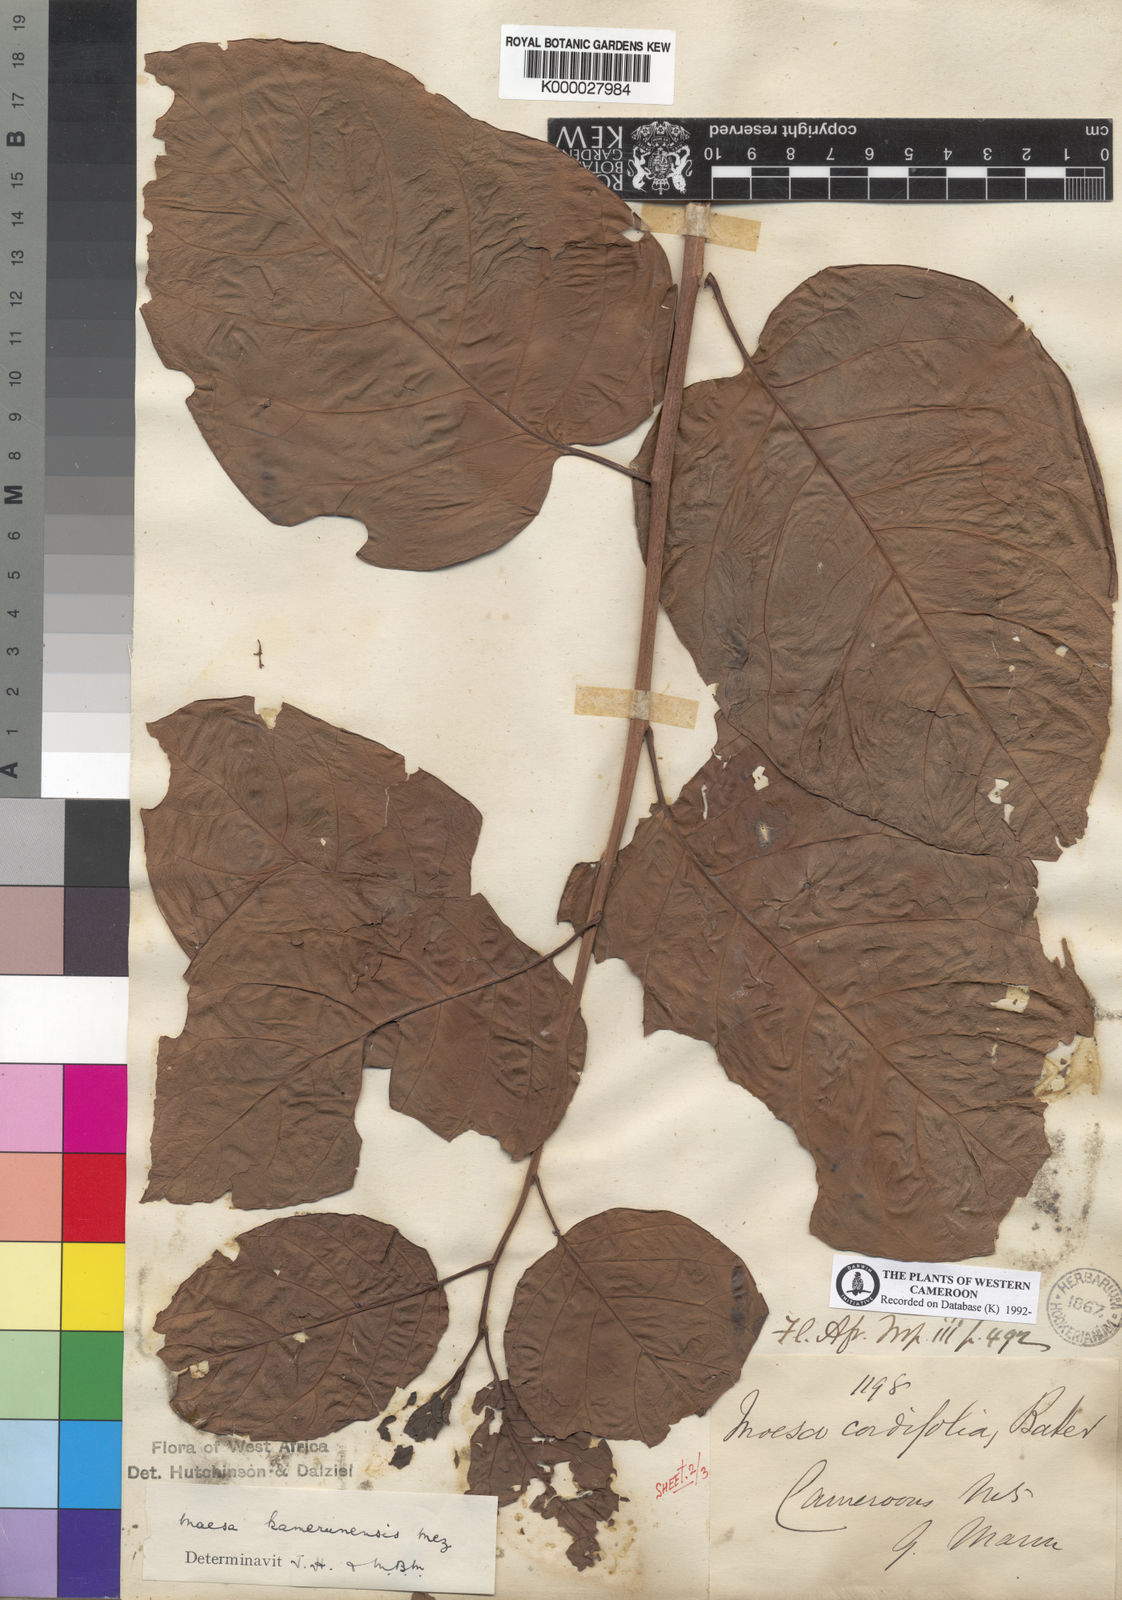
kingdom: Plantae
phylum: Tracheophyta
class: Magnoliopsida
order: Ericales
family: Primulaceae
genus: Maesa
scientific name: Maesa kamerunensis
